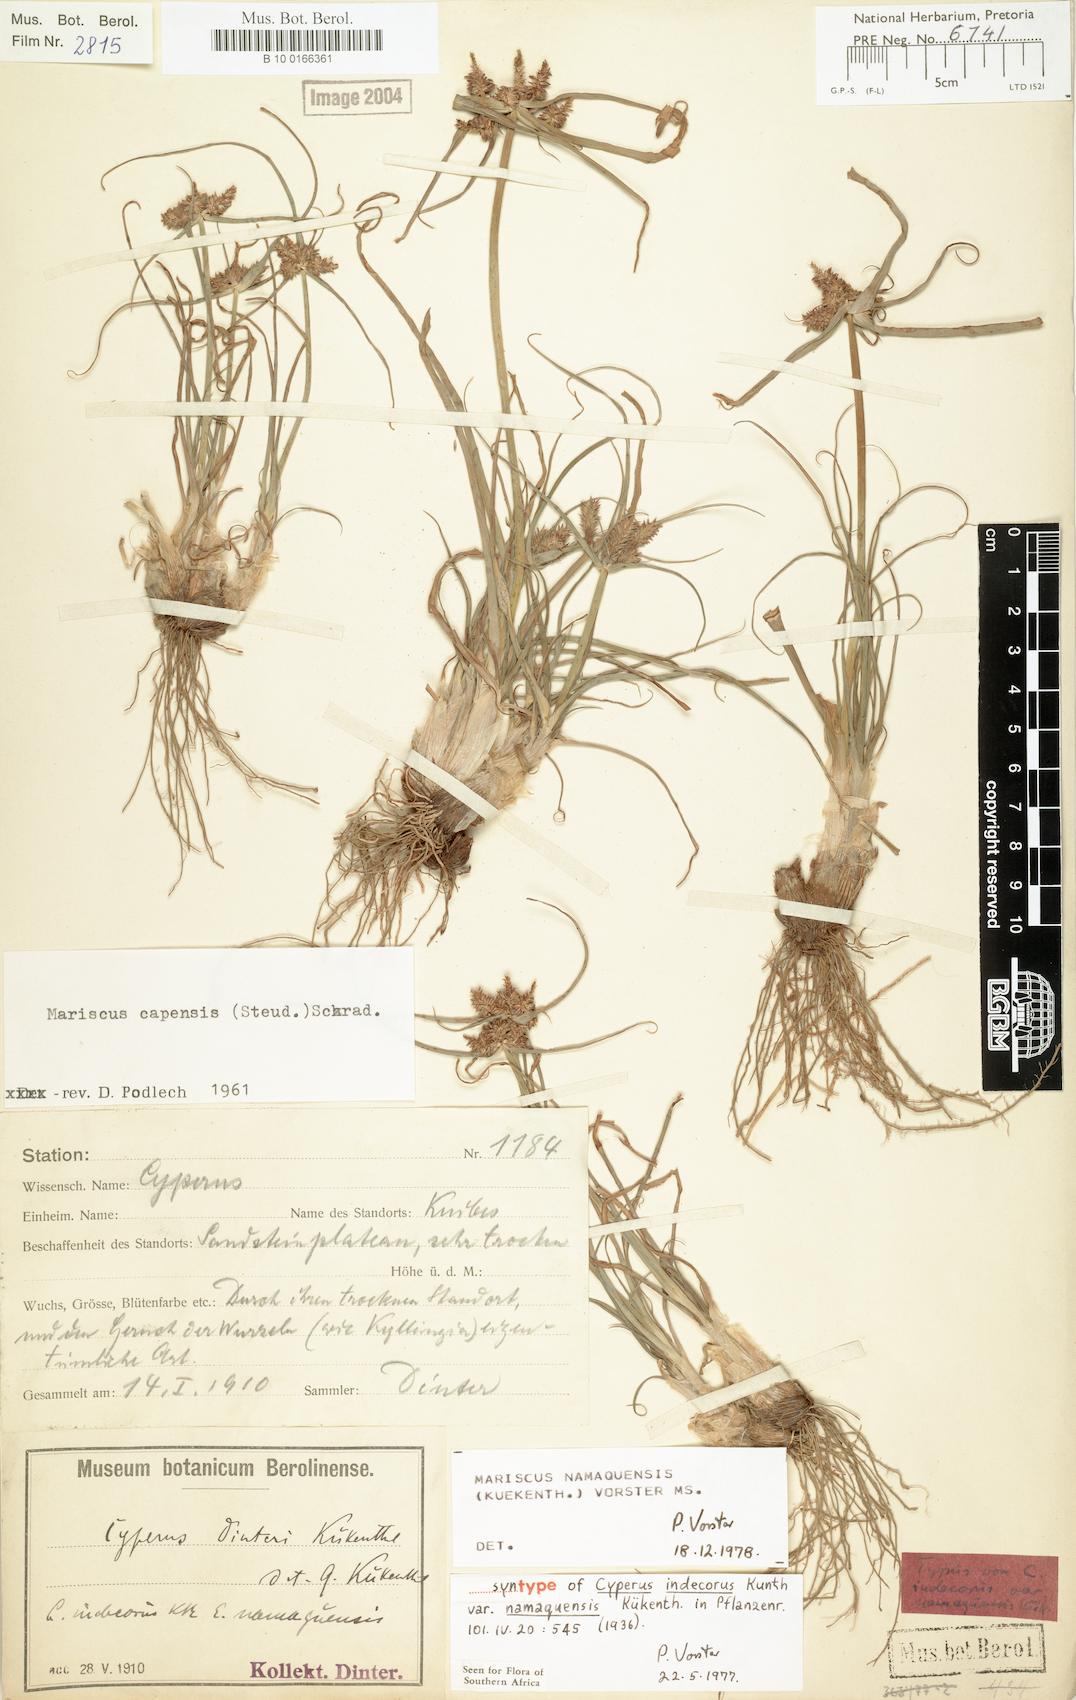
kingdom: Plantae
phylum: Tracheophyta
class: Liliopsida
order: Poales
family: Cyperaceae
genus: Mariscus
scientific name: Mariscus
